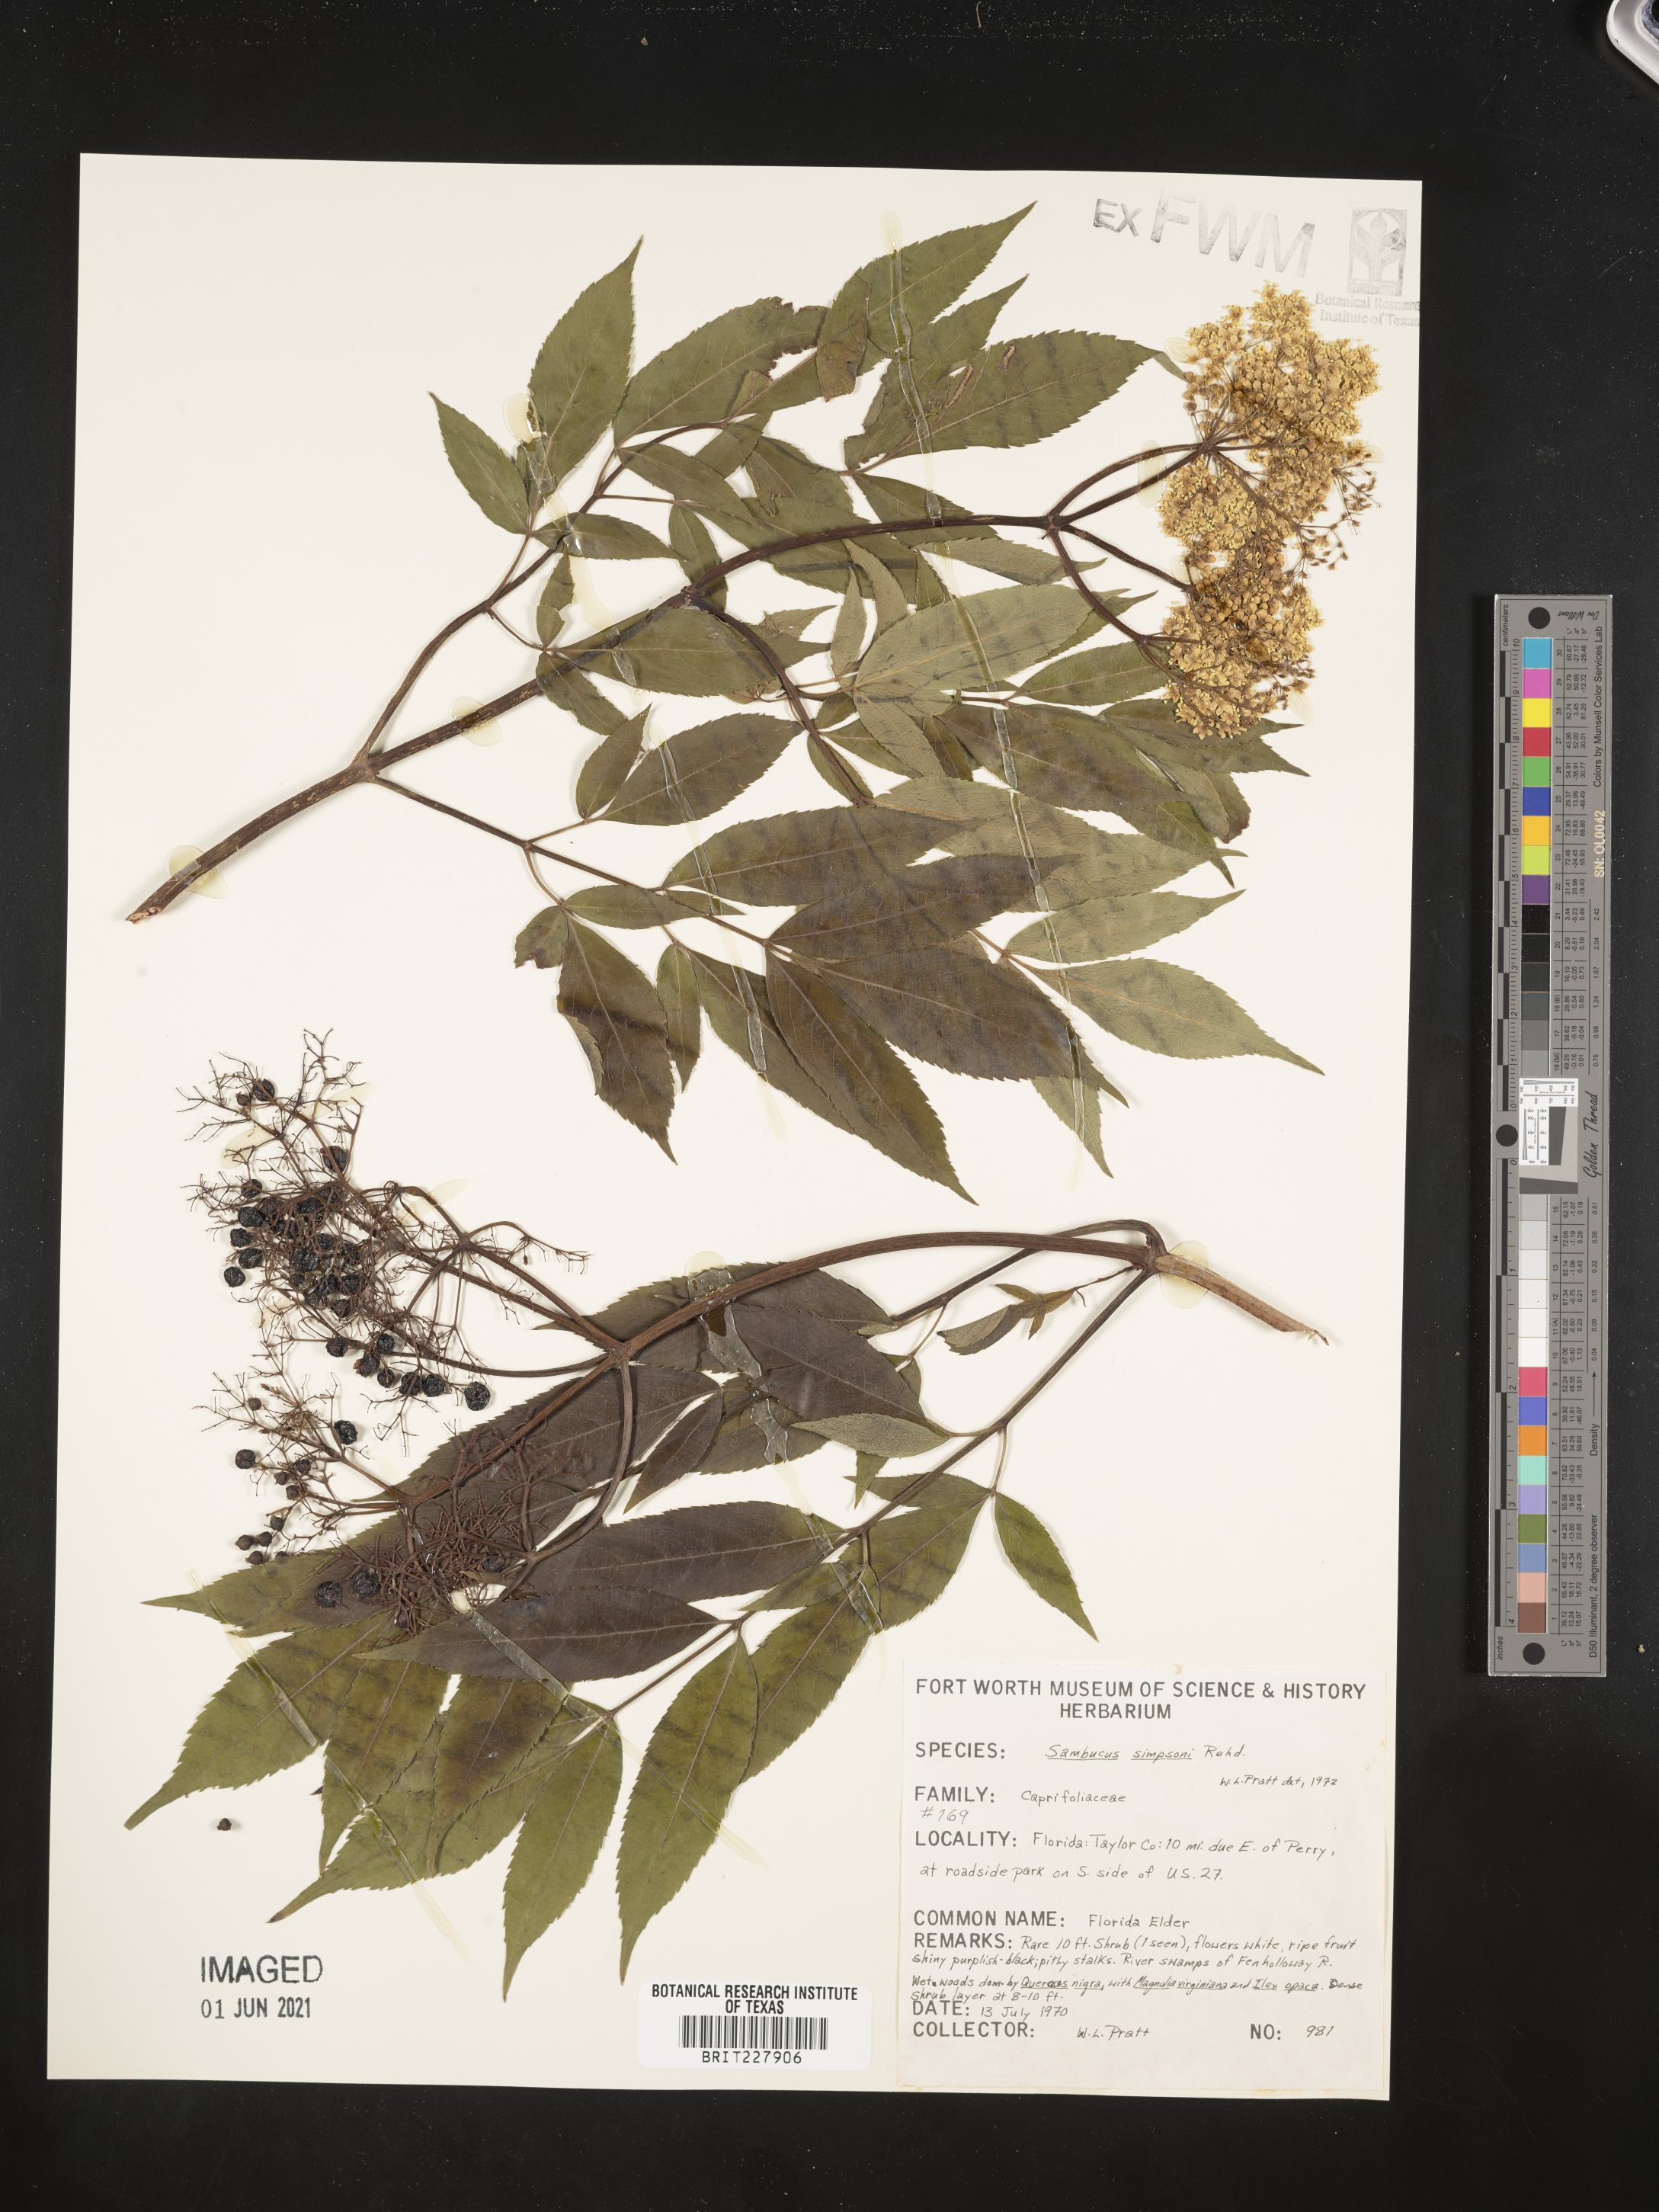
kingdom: Plantae
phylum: Tracheophyta
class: Magnoliopsida
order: Dipsacales
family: Viburnaceae
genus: Sambucus
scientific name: Sambucus
